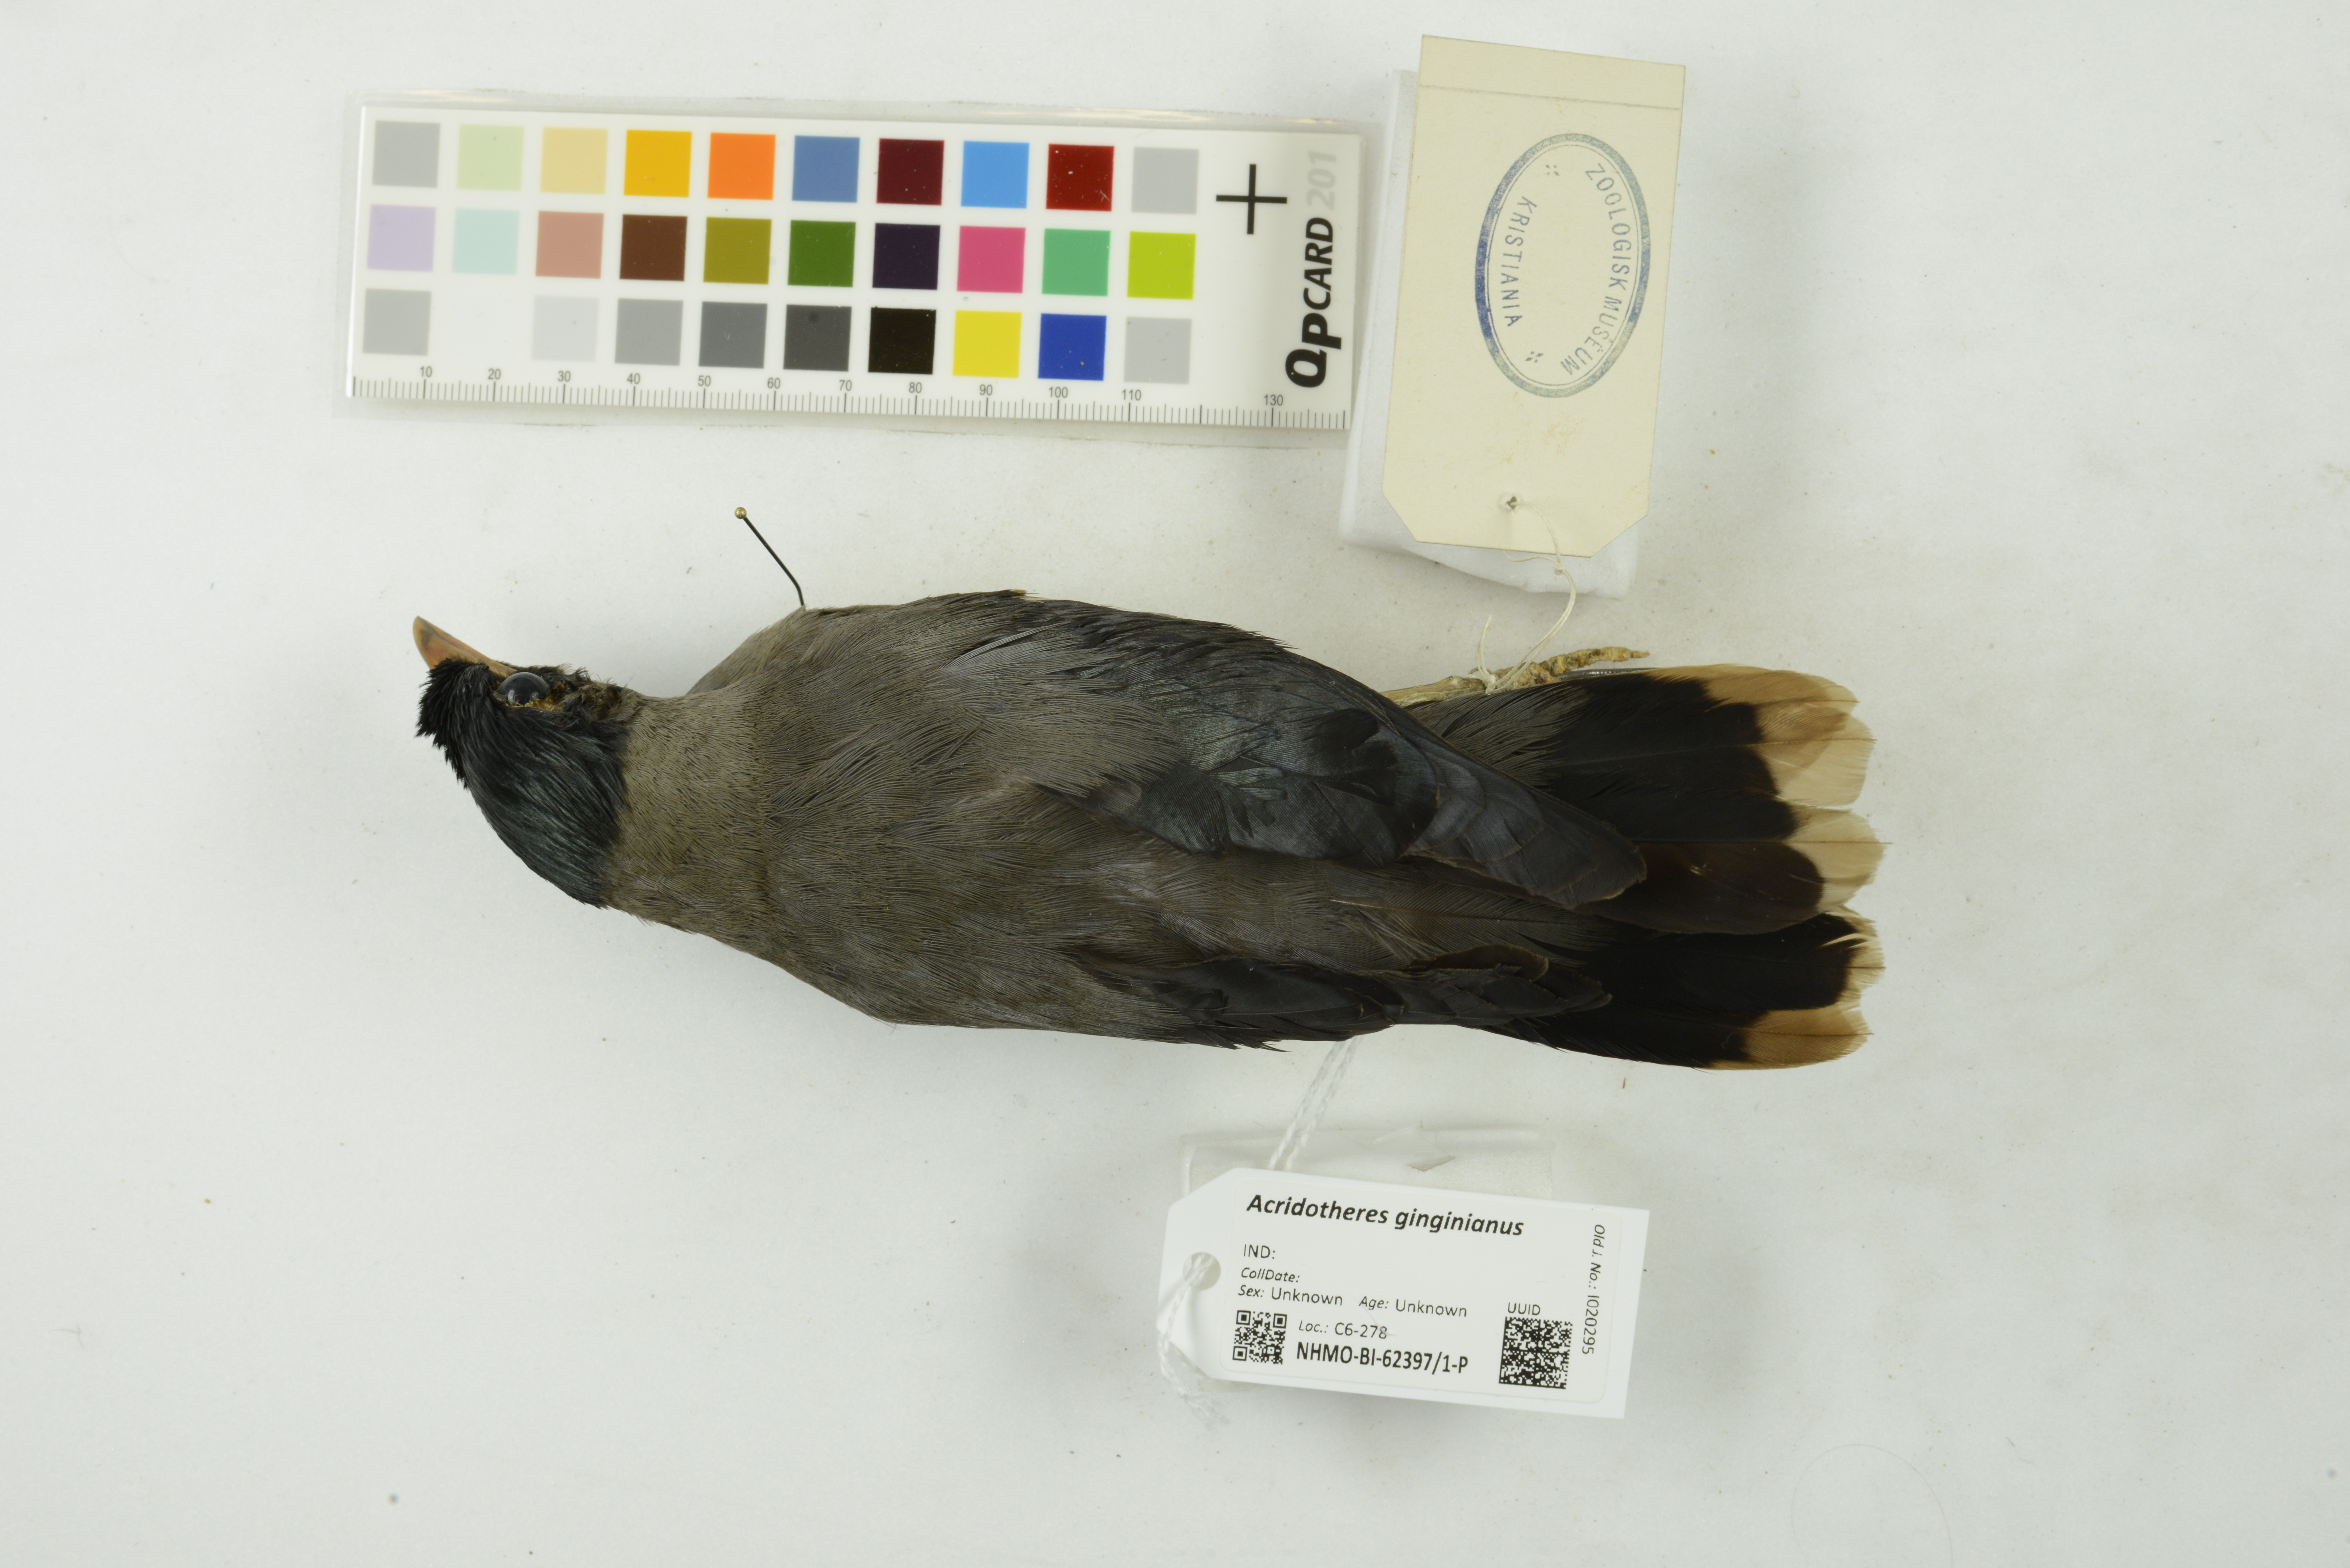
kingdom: Animalia
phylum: Chordata
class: Aves
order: Passeriformes
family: Sturnidae
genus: Acridotheres
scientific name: Acridotheres ginginianus
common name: Bank myna
